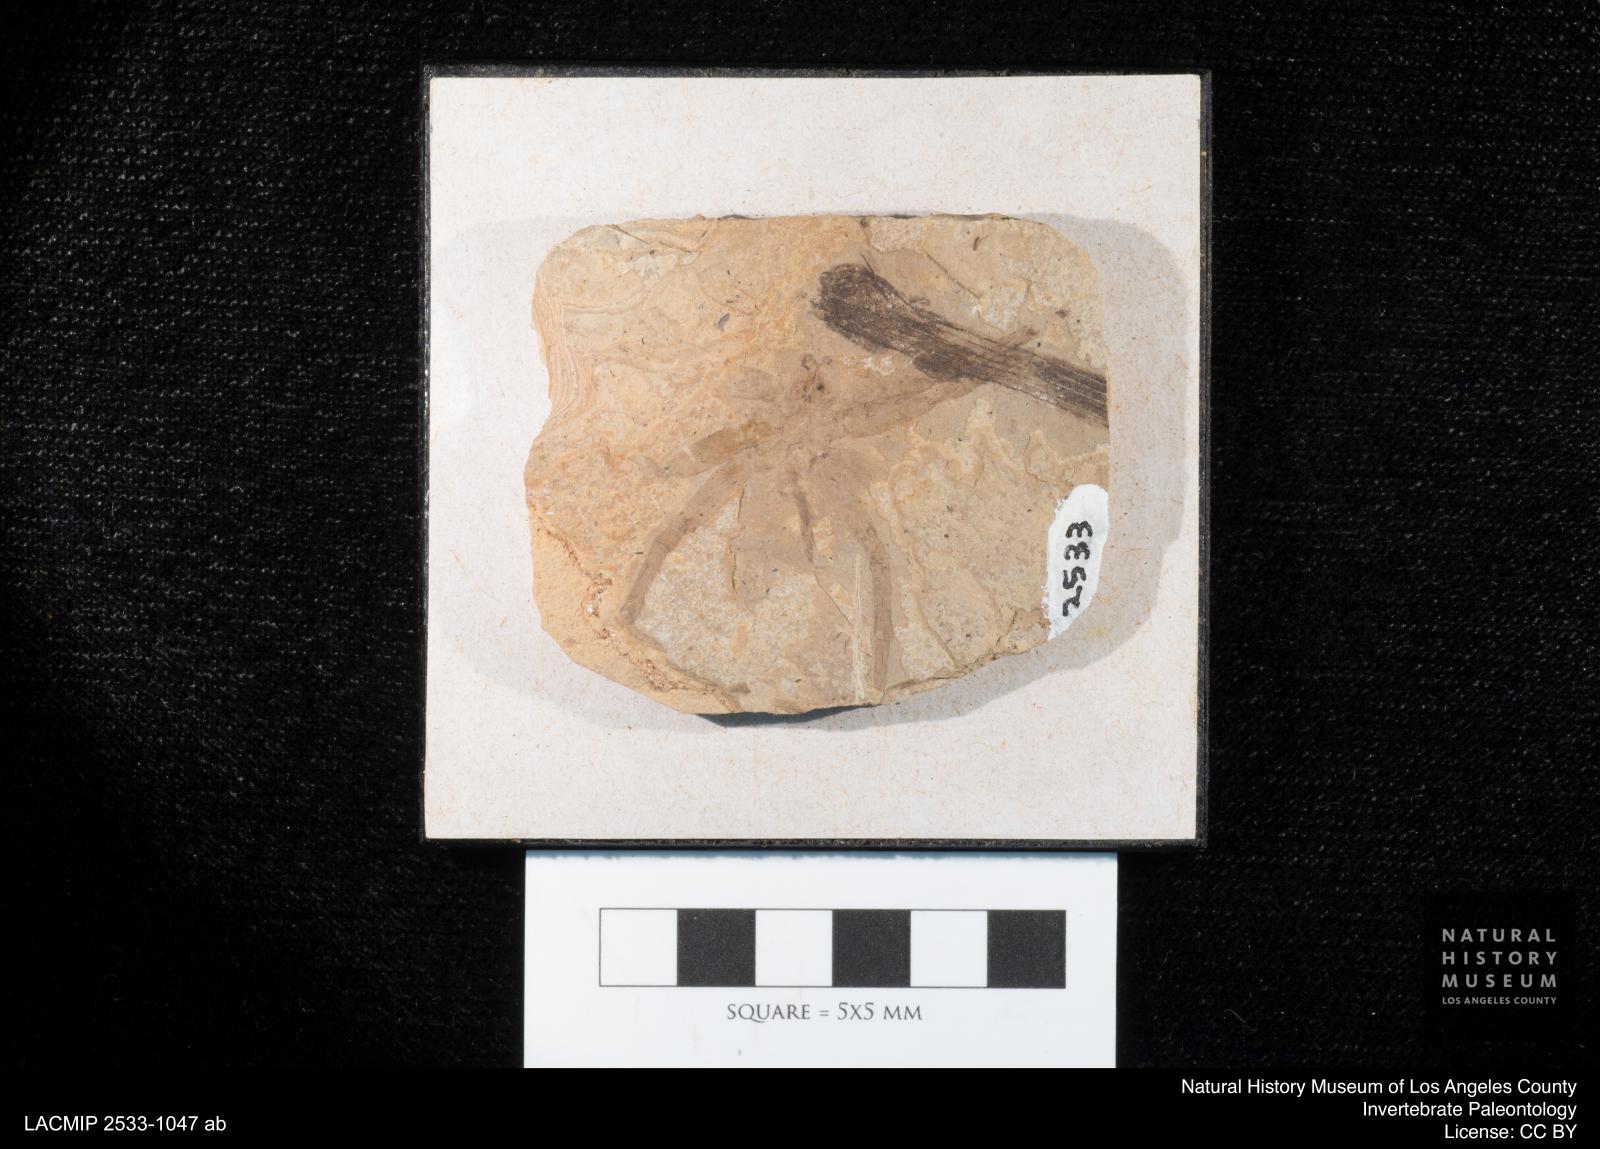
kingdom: Animalia
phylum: Arthropoda
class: Arachnida
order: Araneae
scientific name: Araneae
